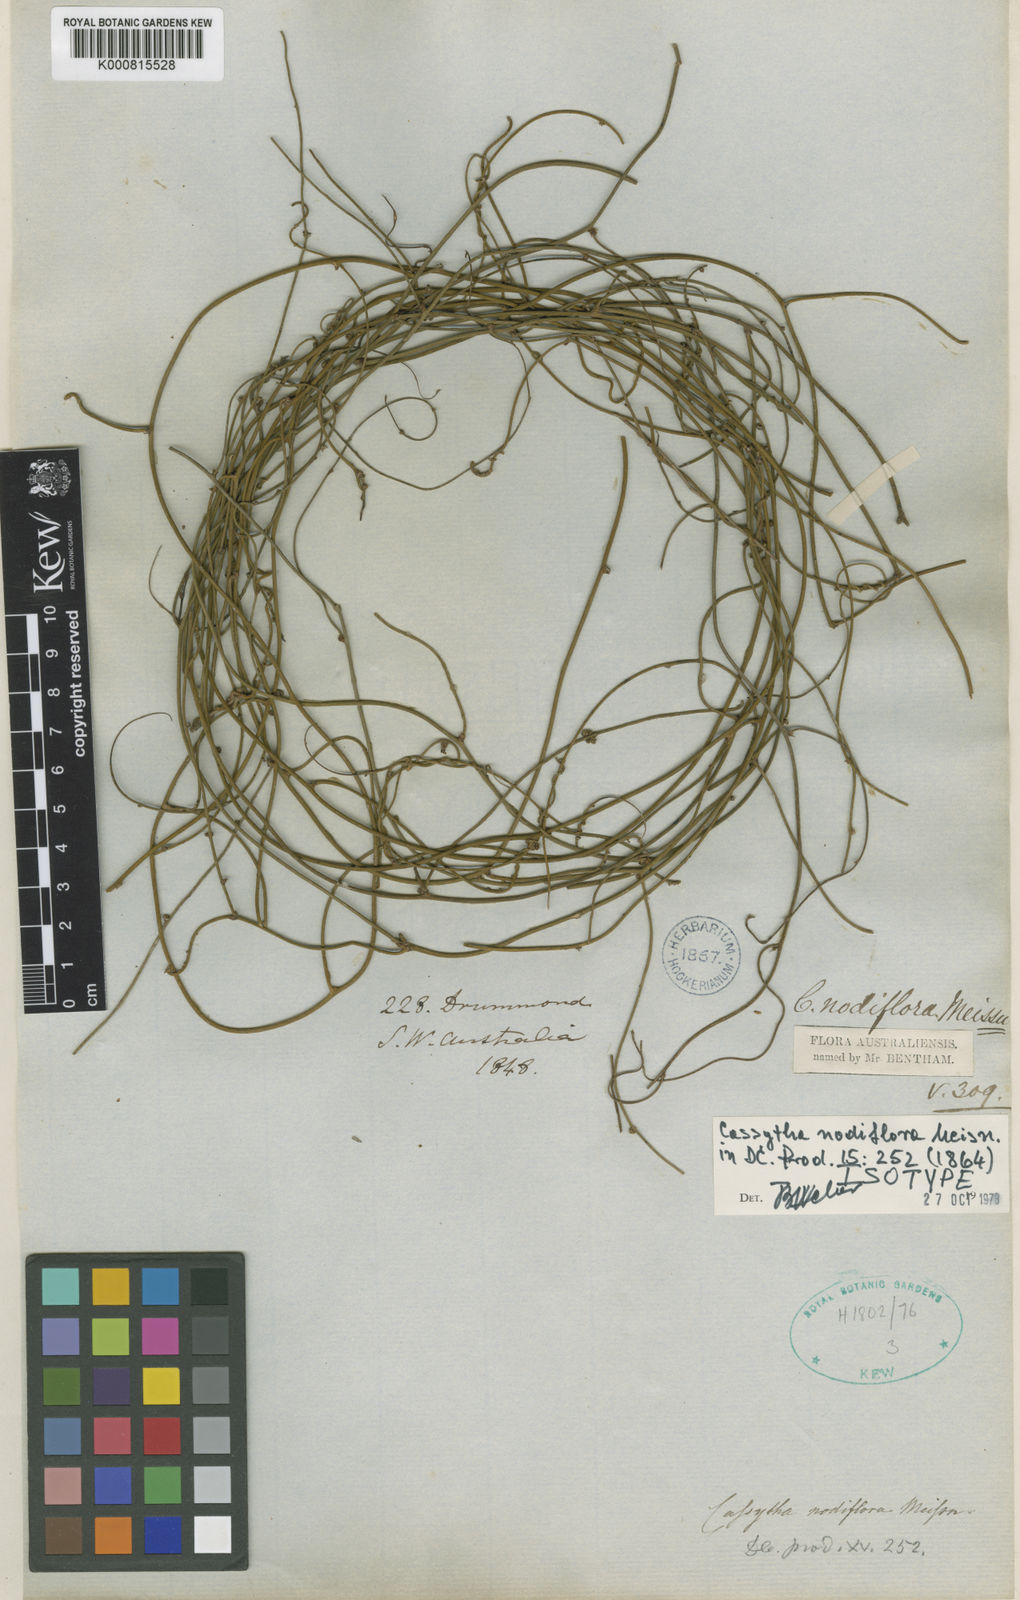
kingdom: Plantae
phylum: Tracheophyta
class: Magnoliopsida
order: Laurales
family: Lauraceae
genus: Cassytha
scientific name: Cassytha nodiflora
